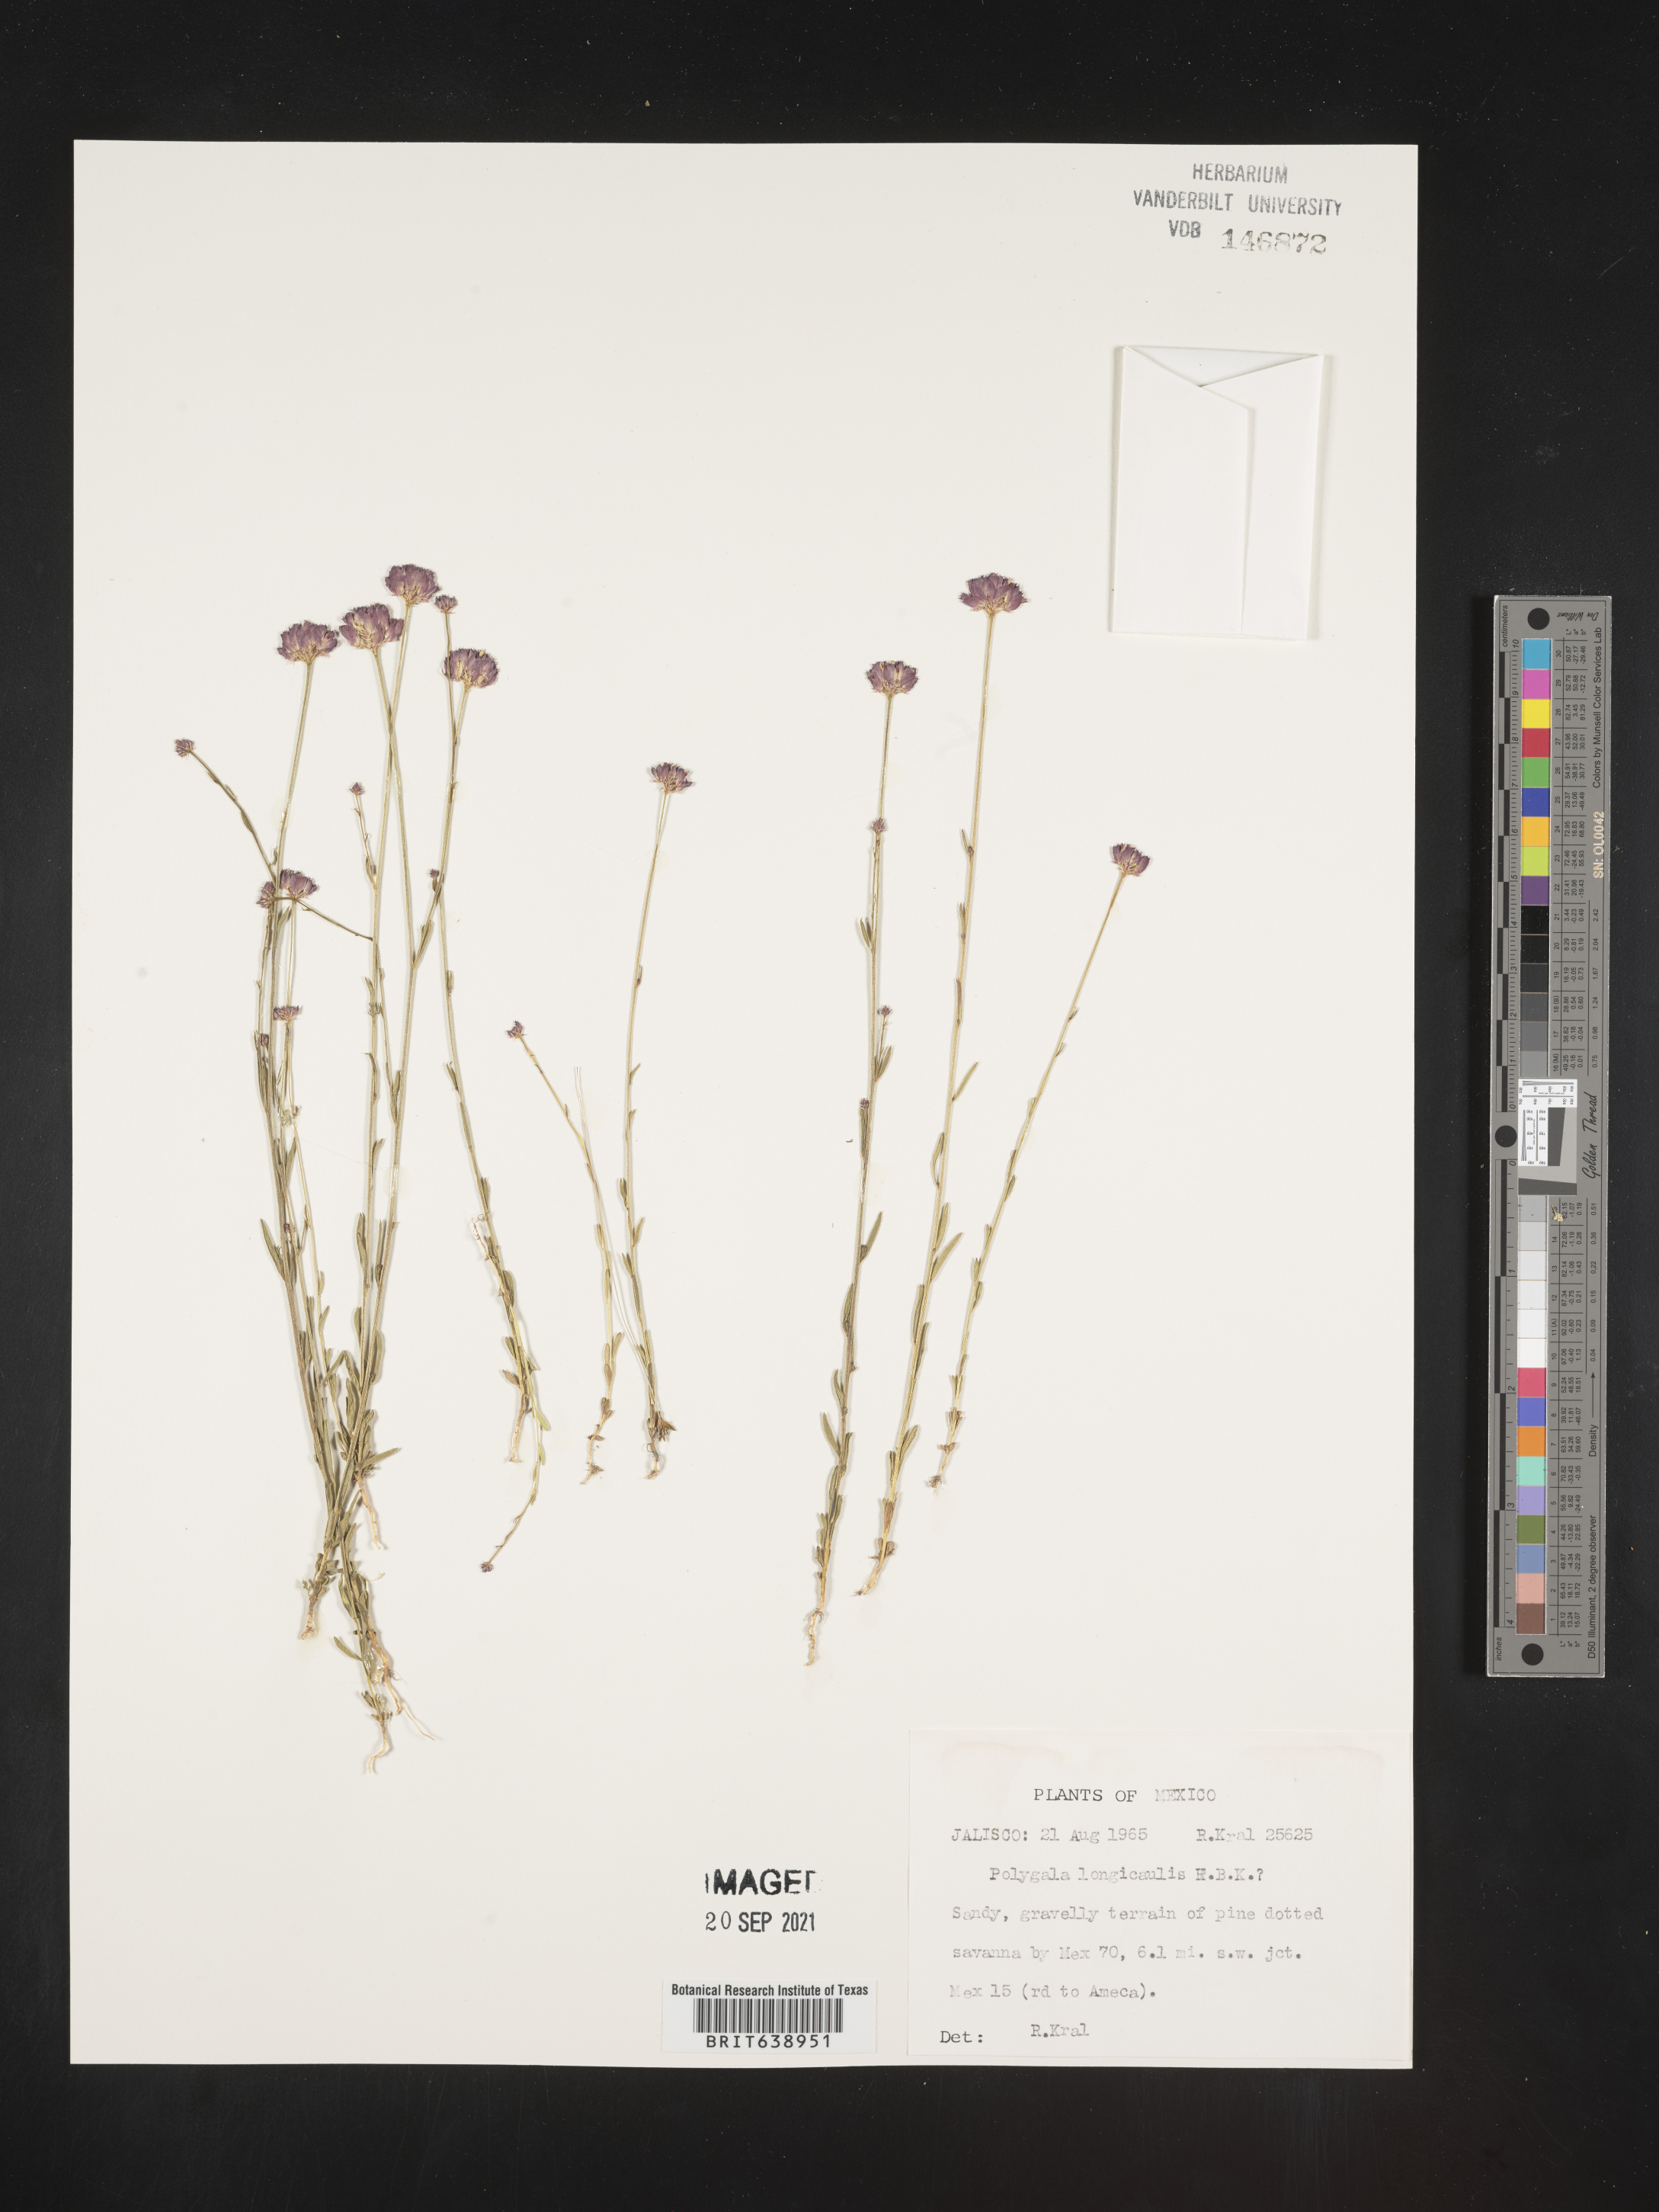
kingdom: Plantae
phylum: Tracheophyta
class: Magnoliopsida
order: Fabales
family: Polygalaceae
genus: Polygala
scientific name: Polygala
